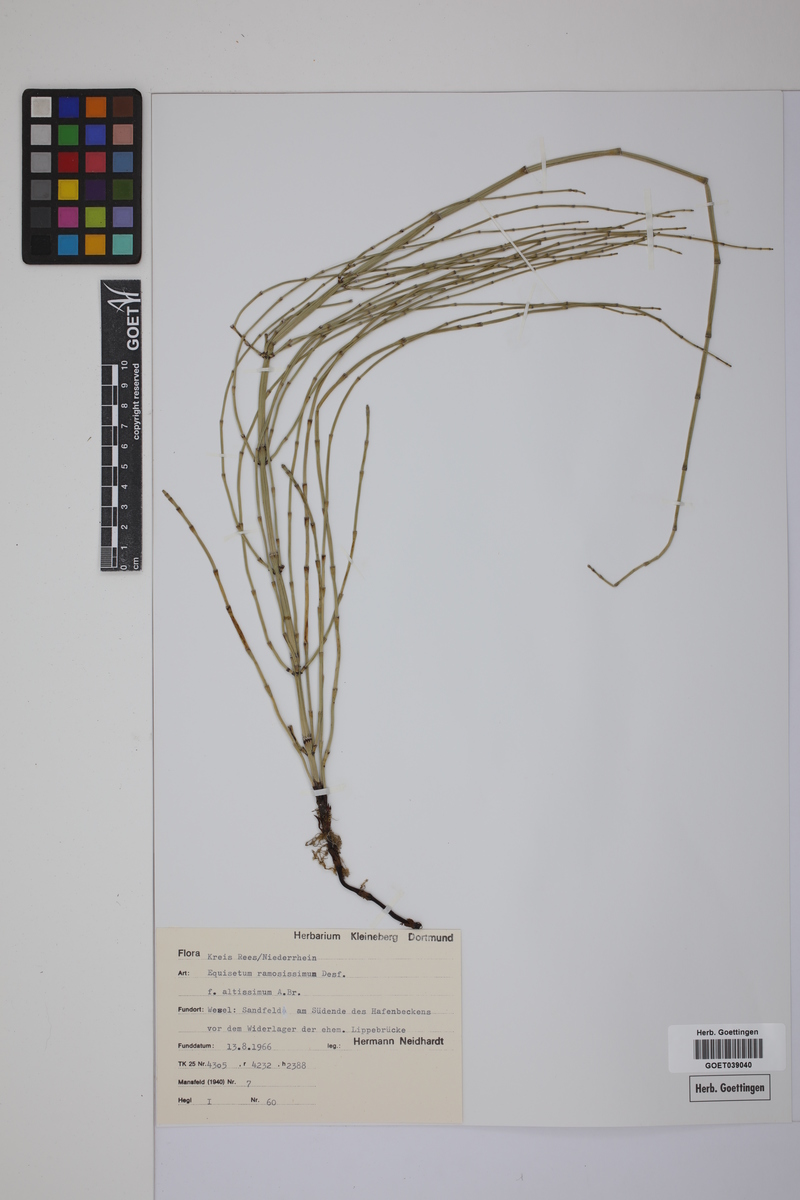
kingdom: Plantae
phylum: Tracheophyta
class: Polypodiopsida
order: Equisetales
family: Equisetaceae
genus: Equisetum
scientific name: Equisetum giganteum
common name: Giant horsetail
